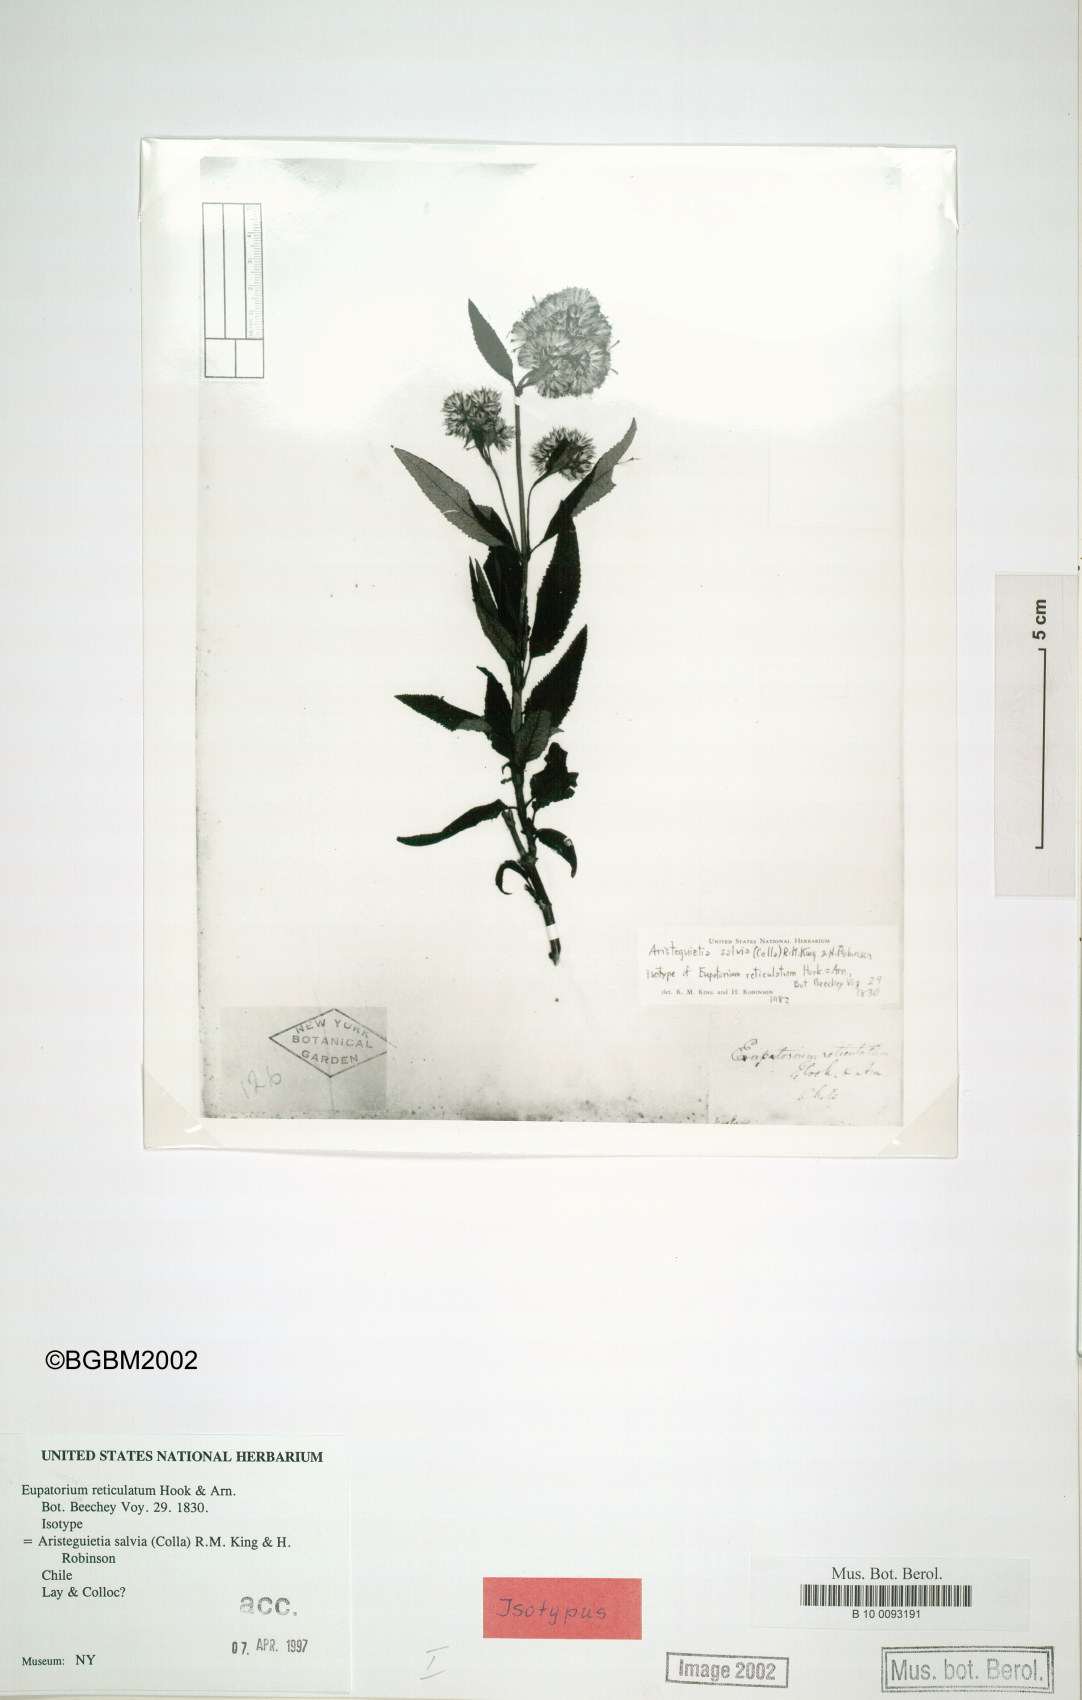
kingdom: Plantae
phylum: Tracheophyta
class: Magnoliopsida
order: Asterales
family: Asteraceae
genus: Aristeguietia
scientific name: Aristeguietia salvia
